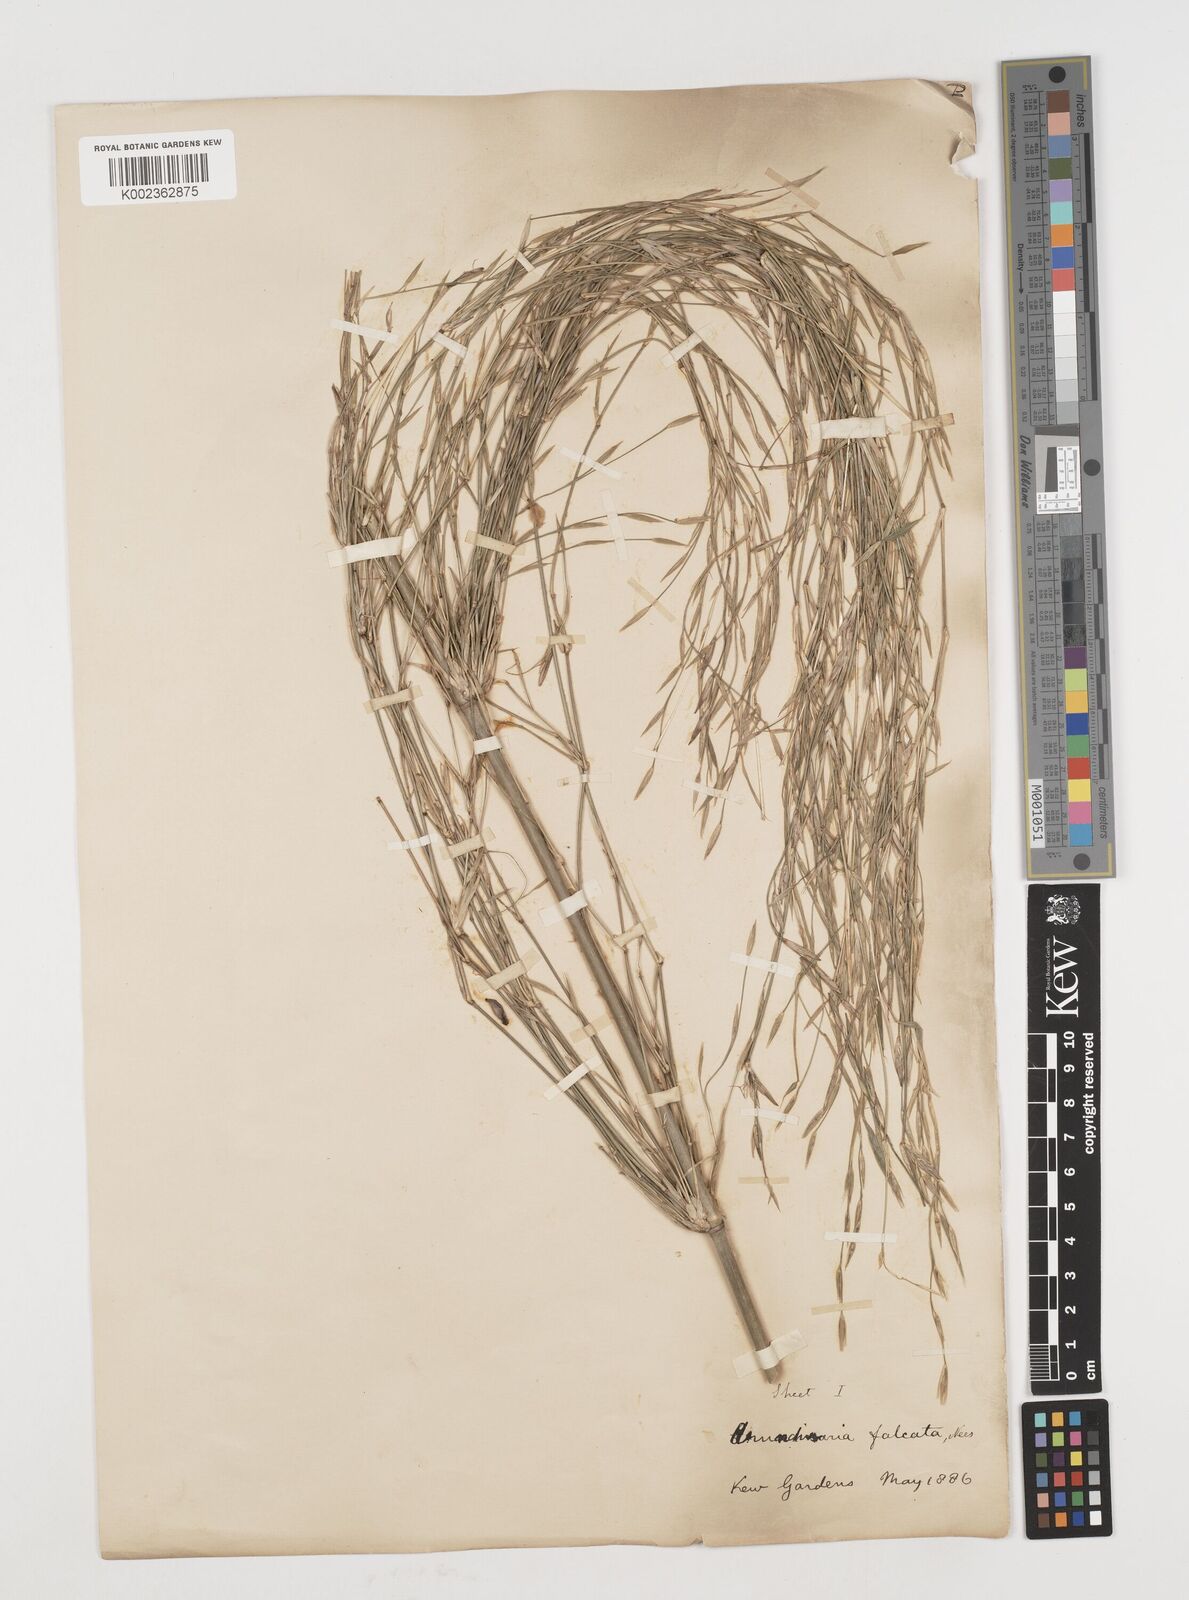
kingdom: Plantae
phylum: Tracheophyta
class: Liliopsida
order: Poales
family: Poaceae
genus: Himalayacalamus
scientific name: Himalayacalamus hookerianus
